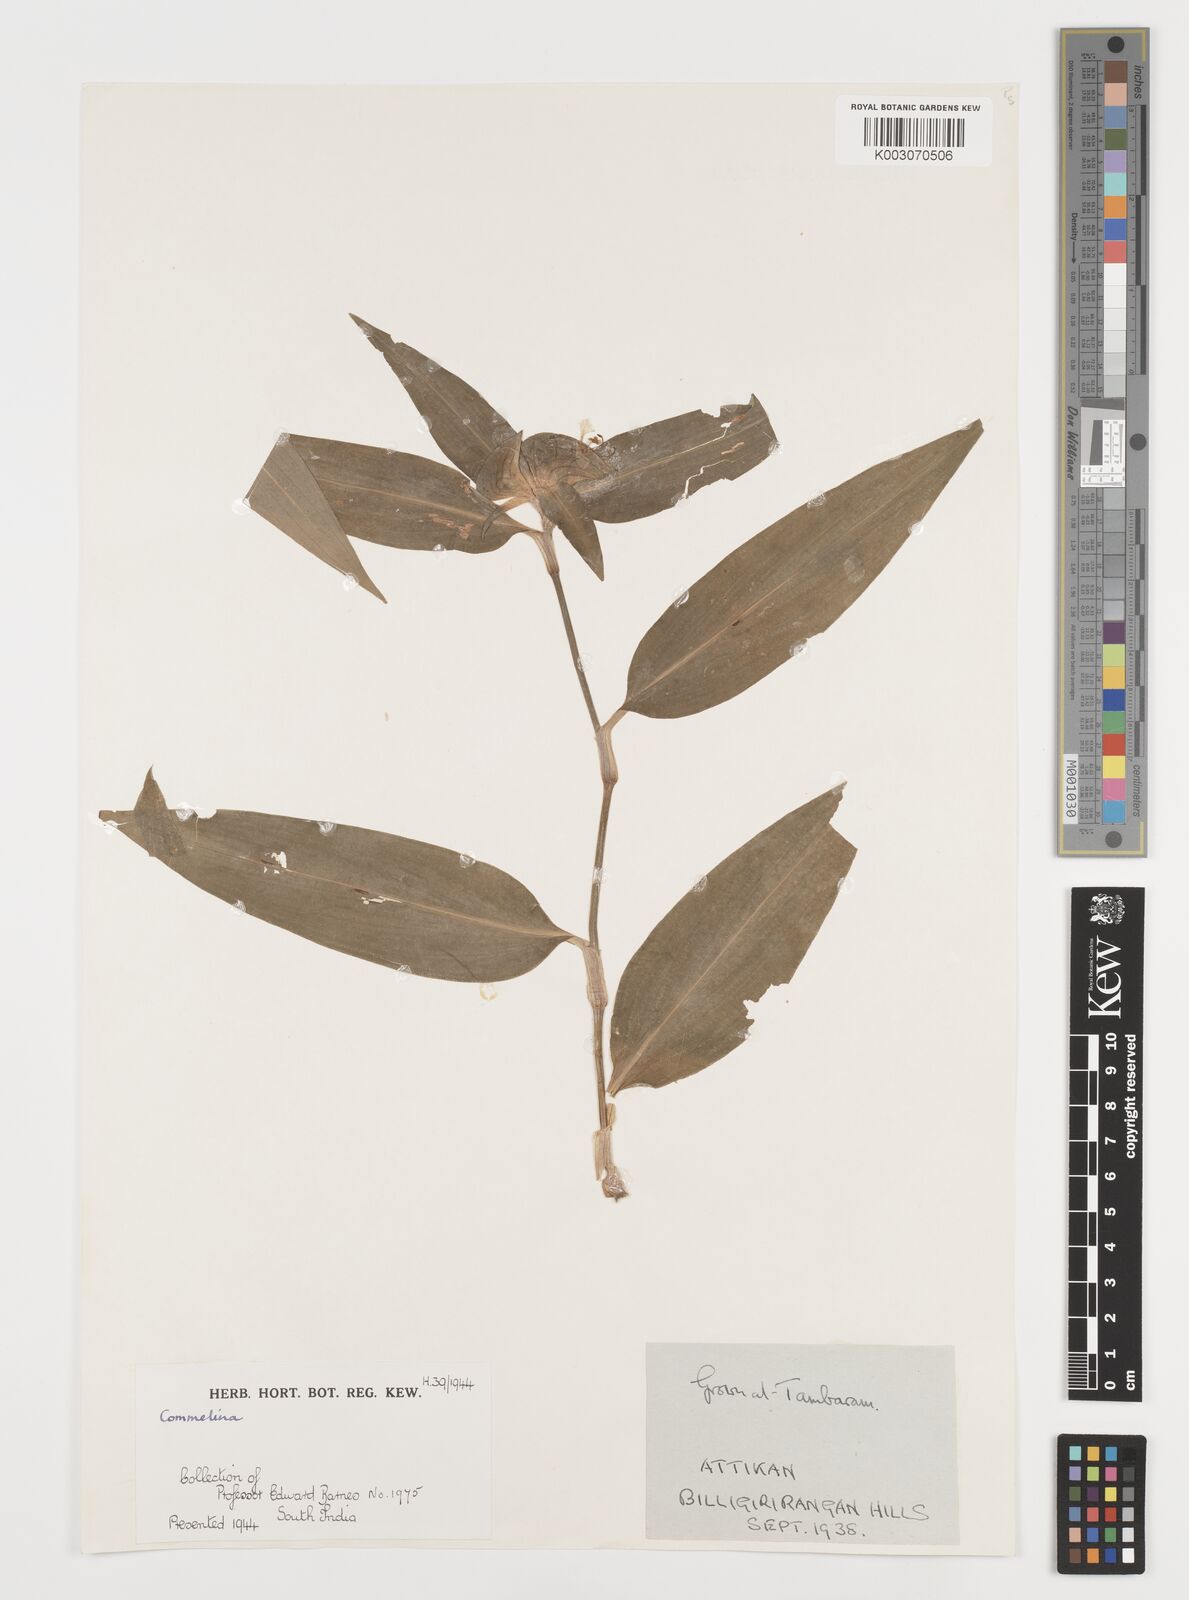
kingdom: Plantae
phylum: Tracheophyta
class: Liliopsida
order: Commelinales
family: Commelinaceae
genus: Commelina
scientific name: Commelina
